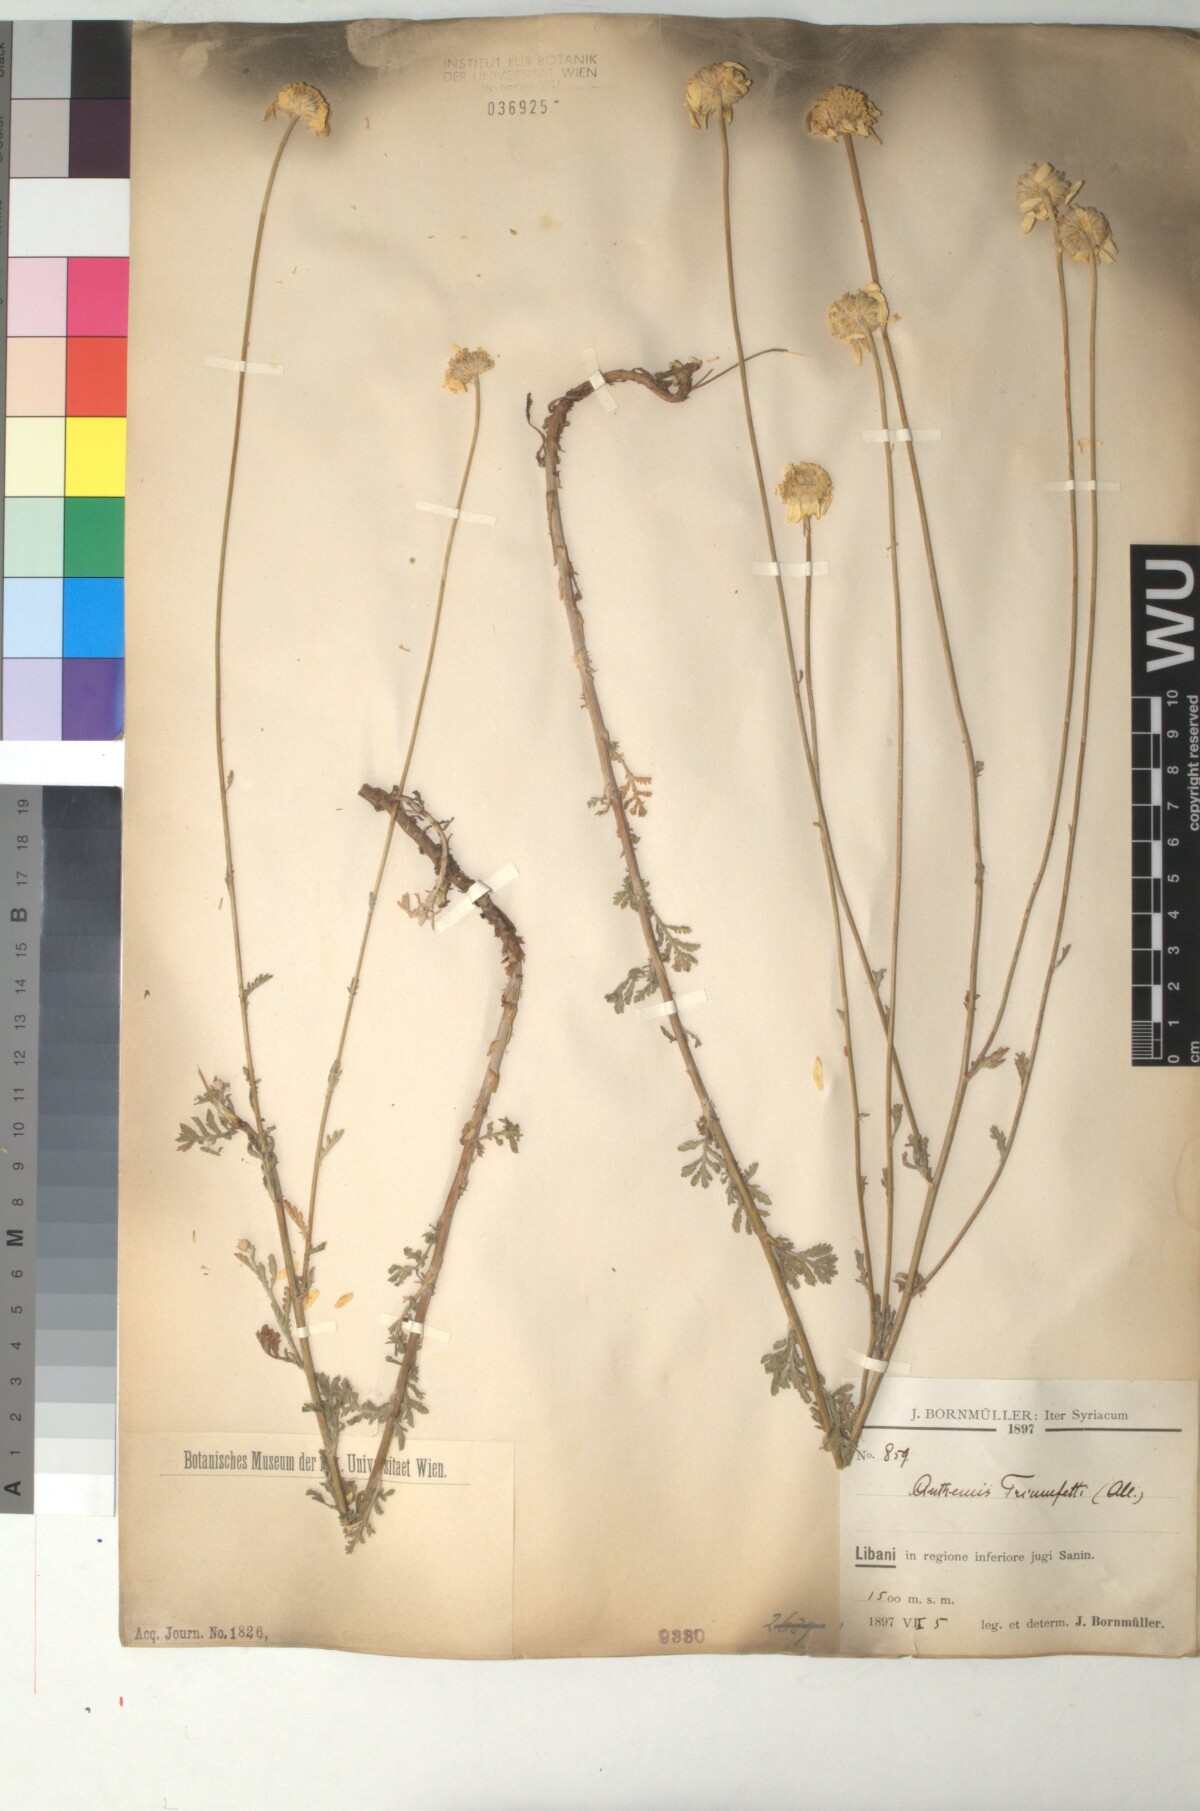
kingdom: Plantae
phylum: Tracheophyta
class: Magnoliopsida
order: Asterales
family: Asteraceae
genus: Cota
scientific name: Cota triumfetti
